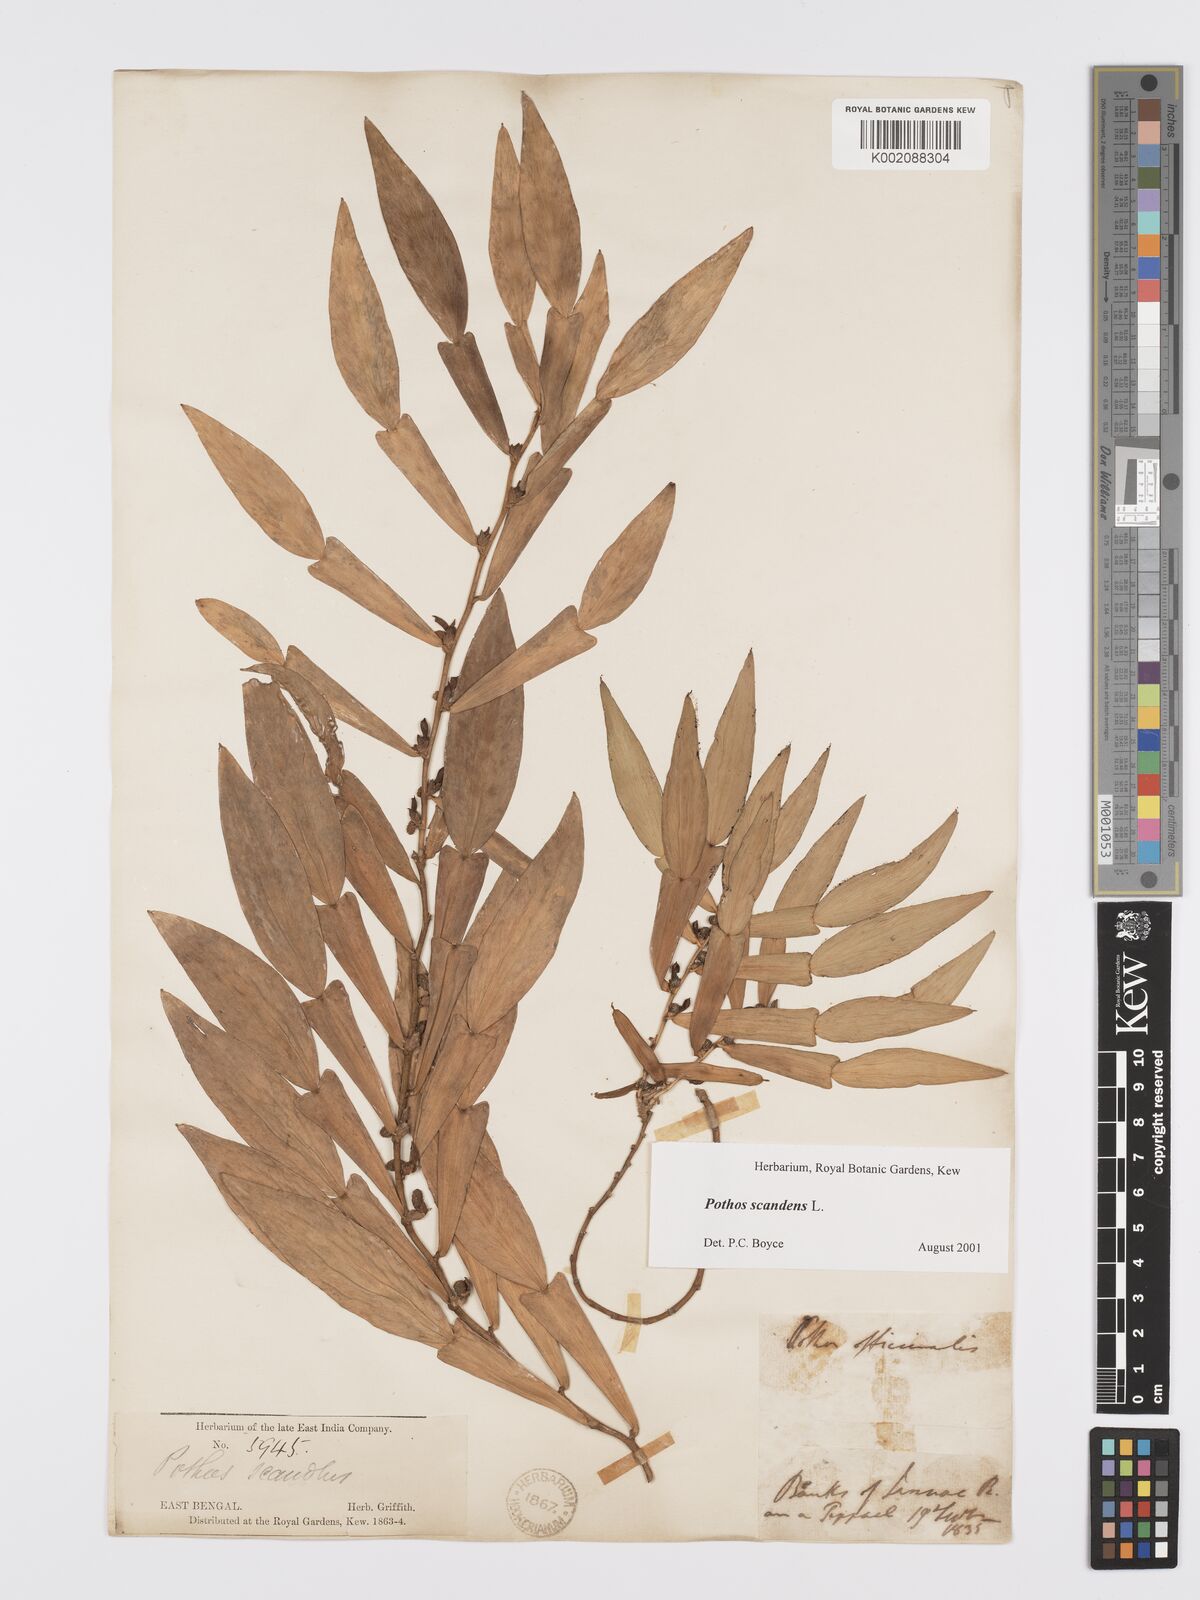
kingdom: Plantae
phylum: Tracheophyta
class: Liliopsida
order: Alismatales
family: Araceae
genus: Pothos
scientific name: Pothos scandens
